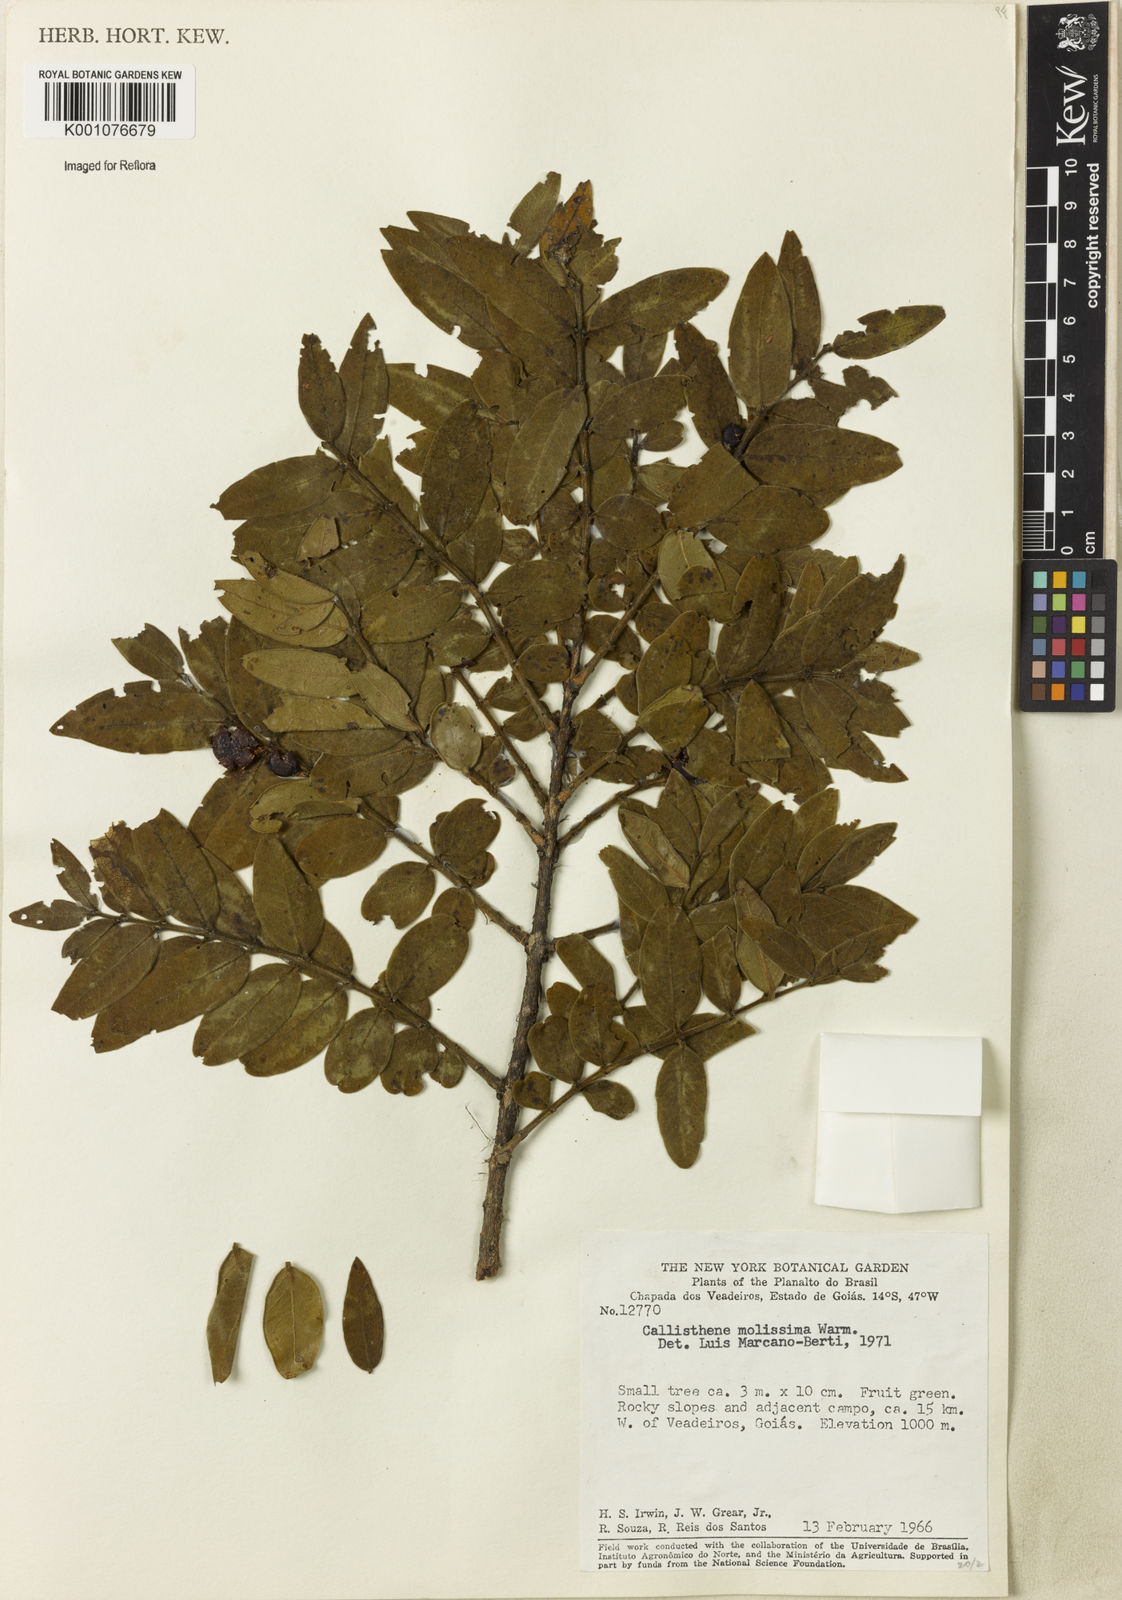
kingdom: Plantae
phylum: Tracheophyta
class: Magnoliopsida
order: Myrtales
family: Vochysiaceae
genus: Callisthene
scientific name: Callisthene mollissima
